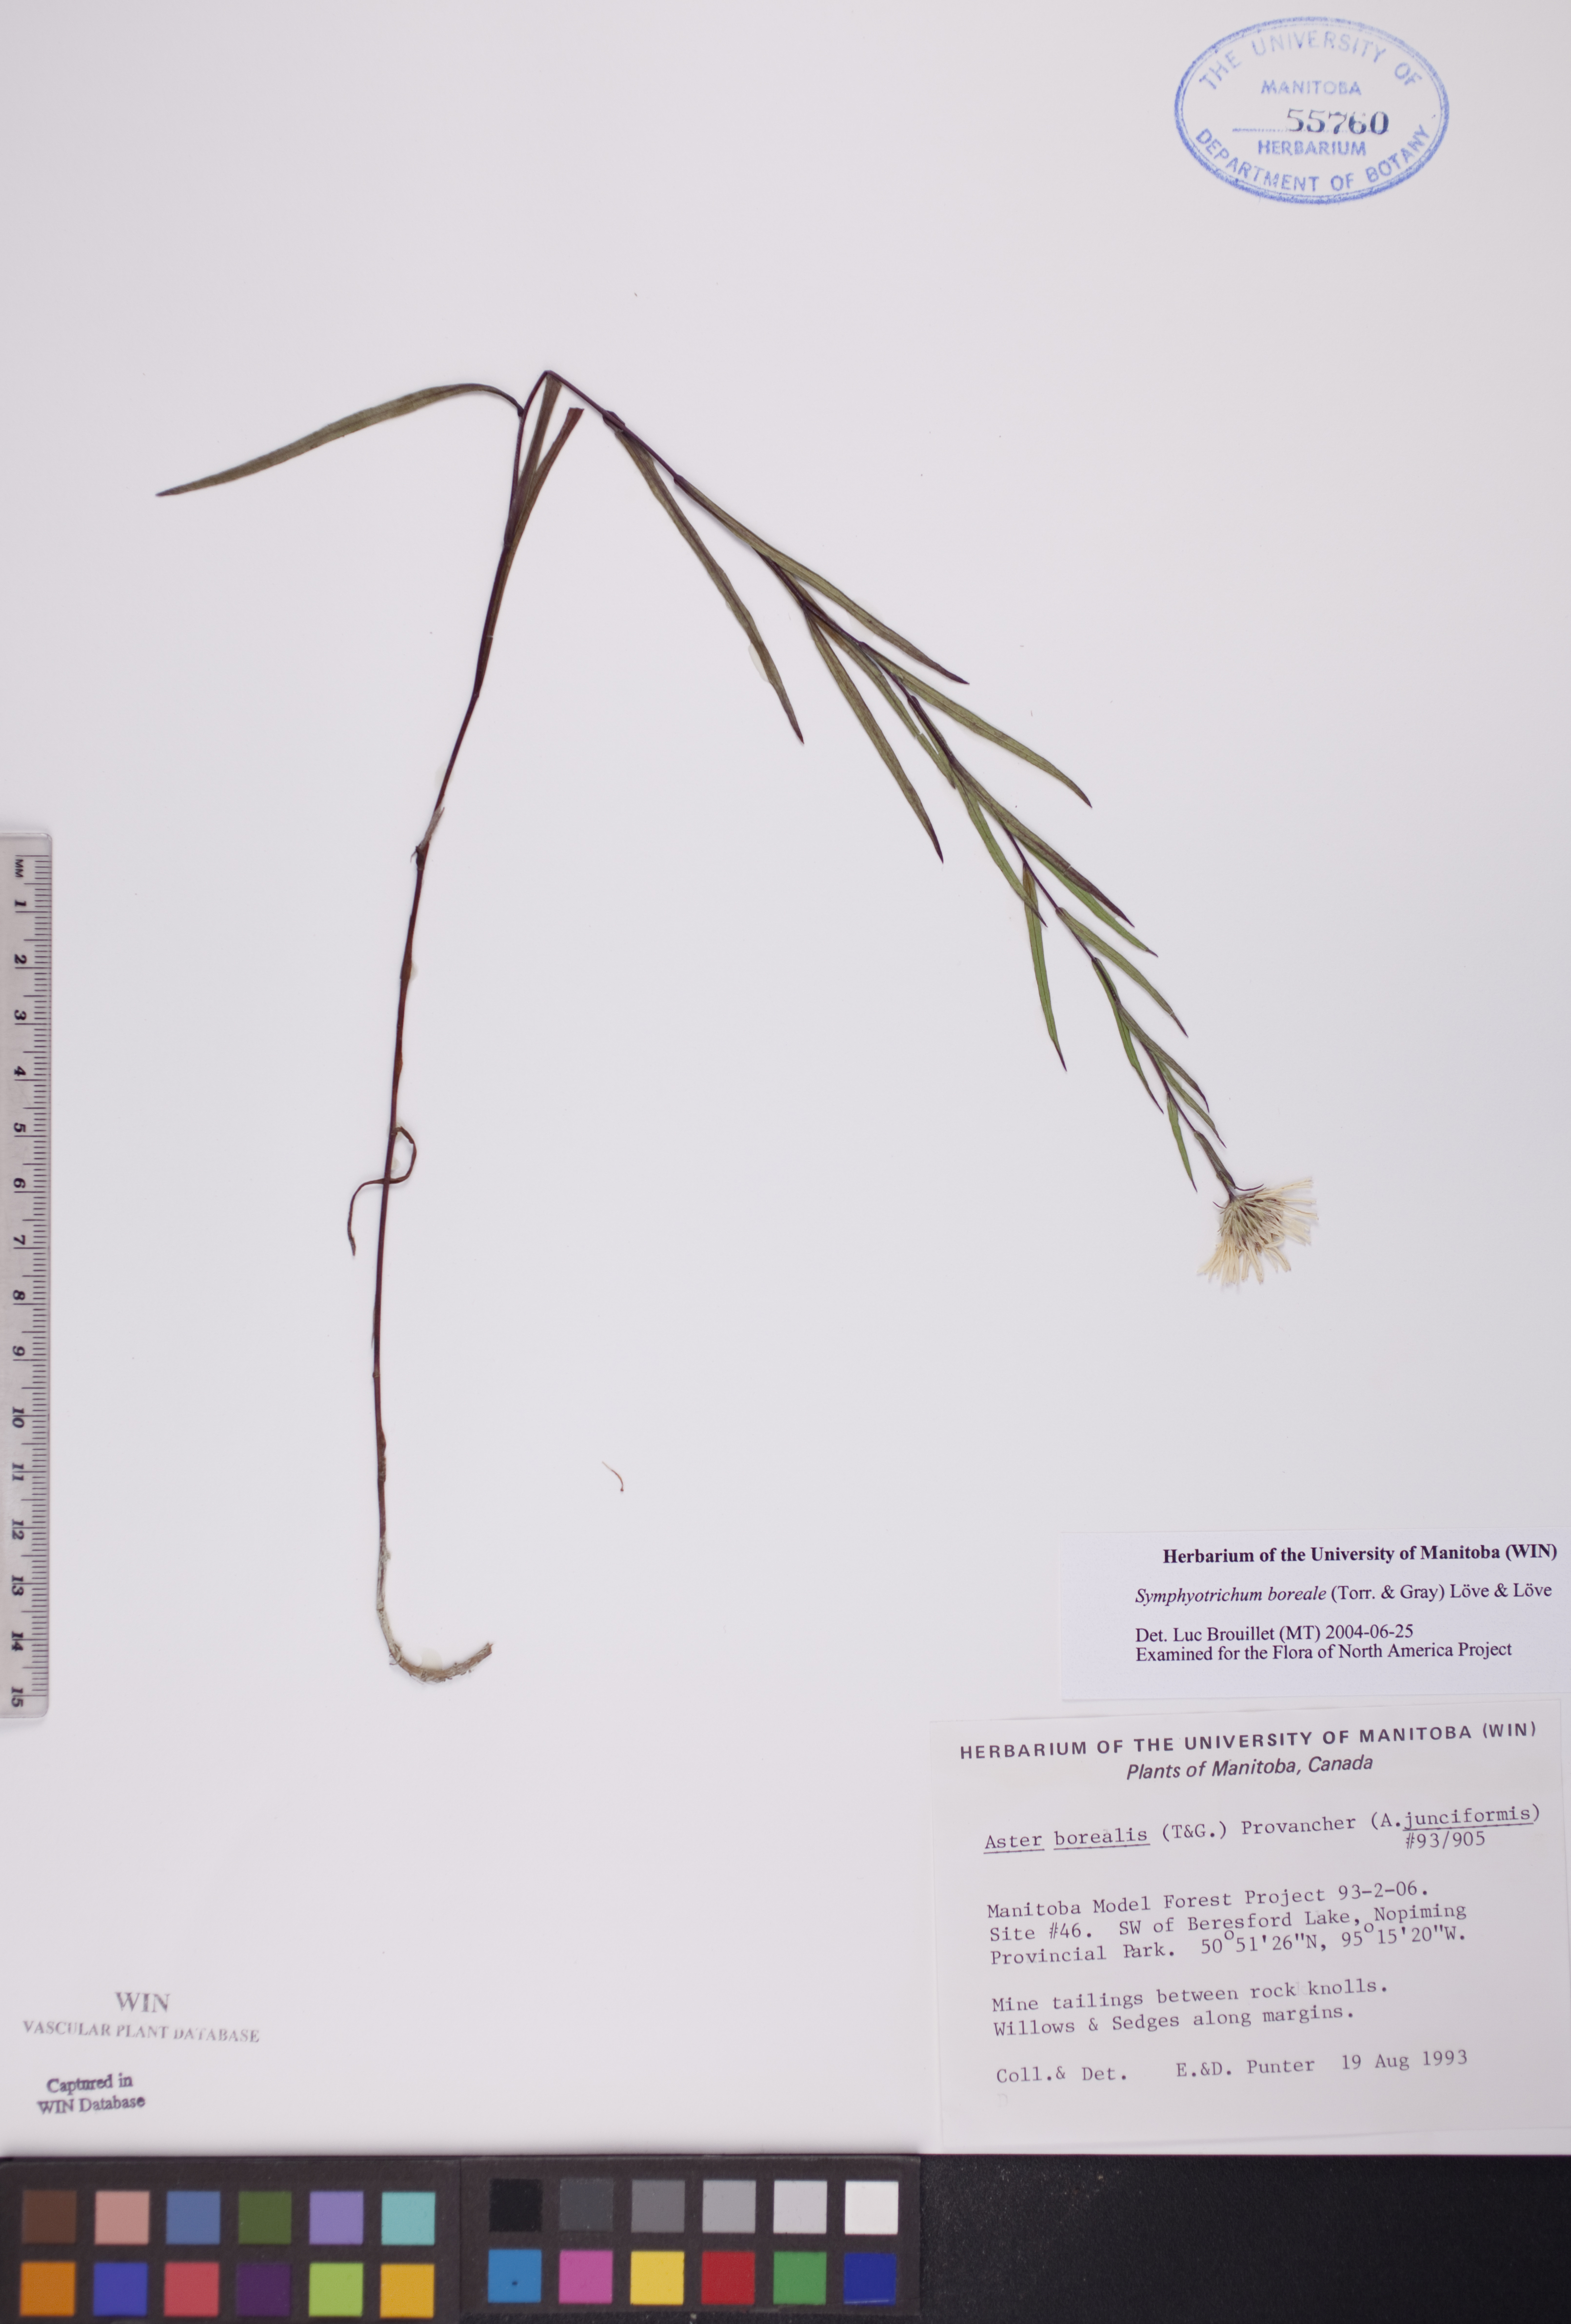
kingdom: Plantae
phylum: Tracheophyta
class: Magnoliopsida
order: Asterales
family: Asteraceae
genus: Symphyotrichum
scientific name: Symphyotrichum boreale
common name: Northern bog aster
